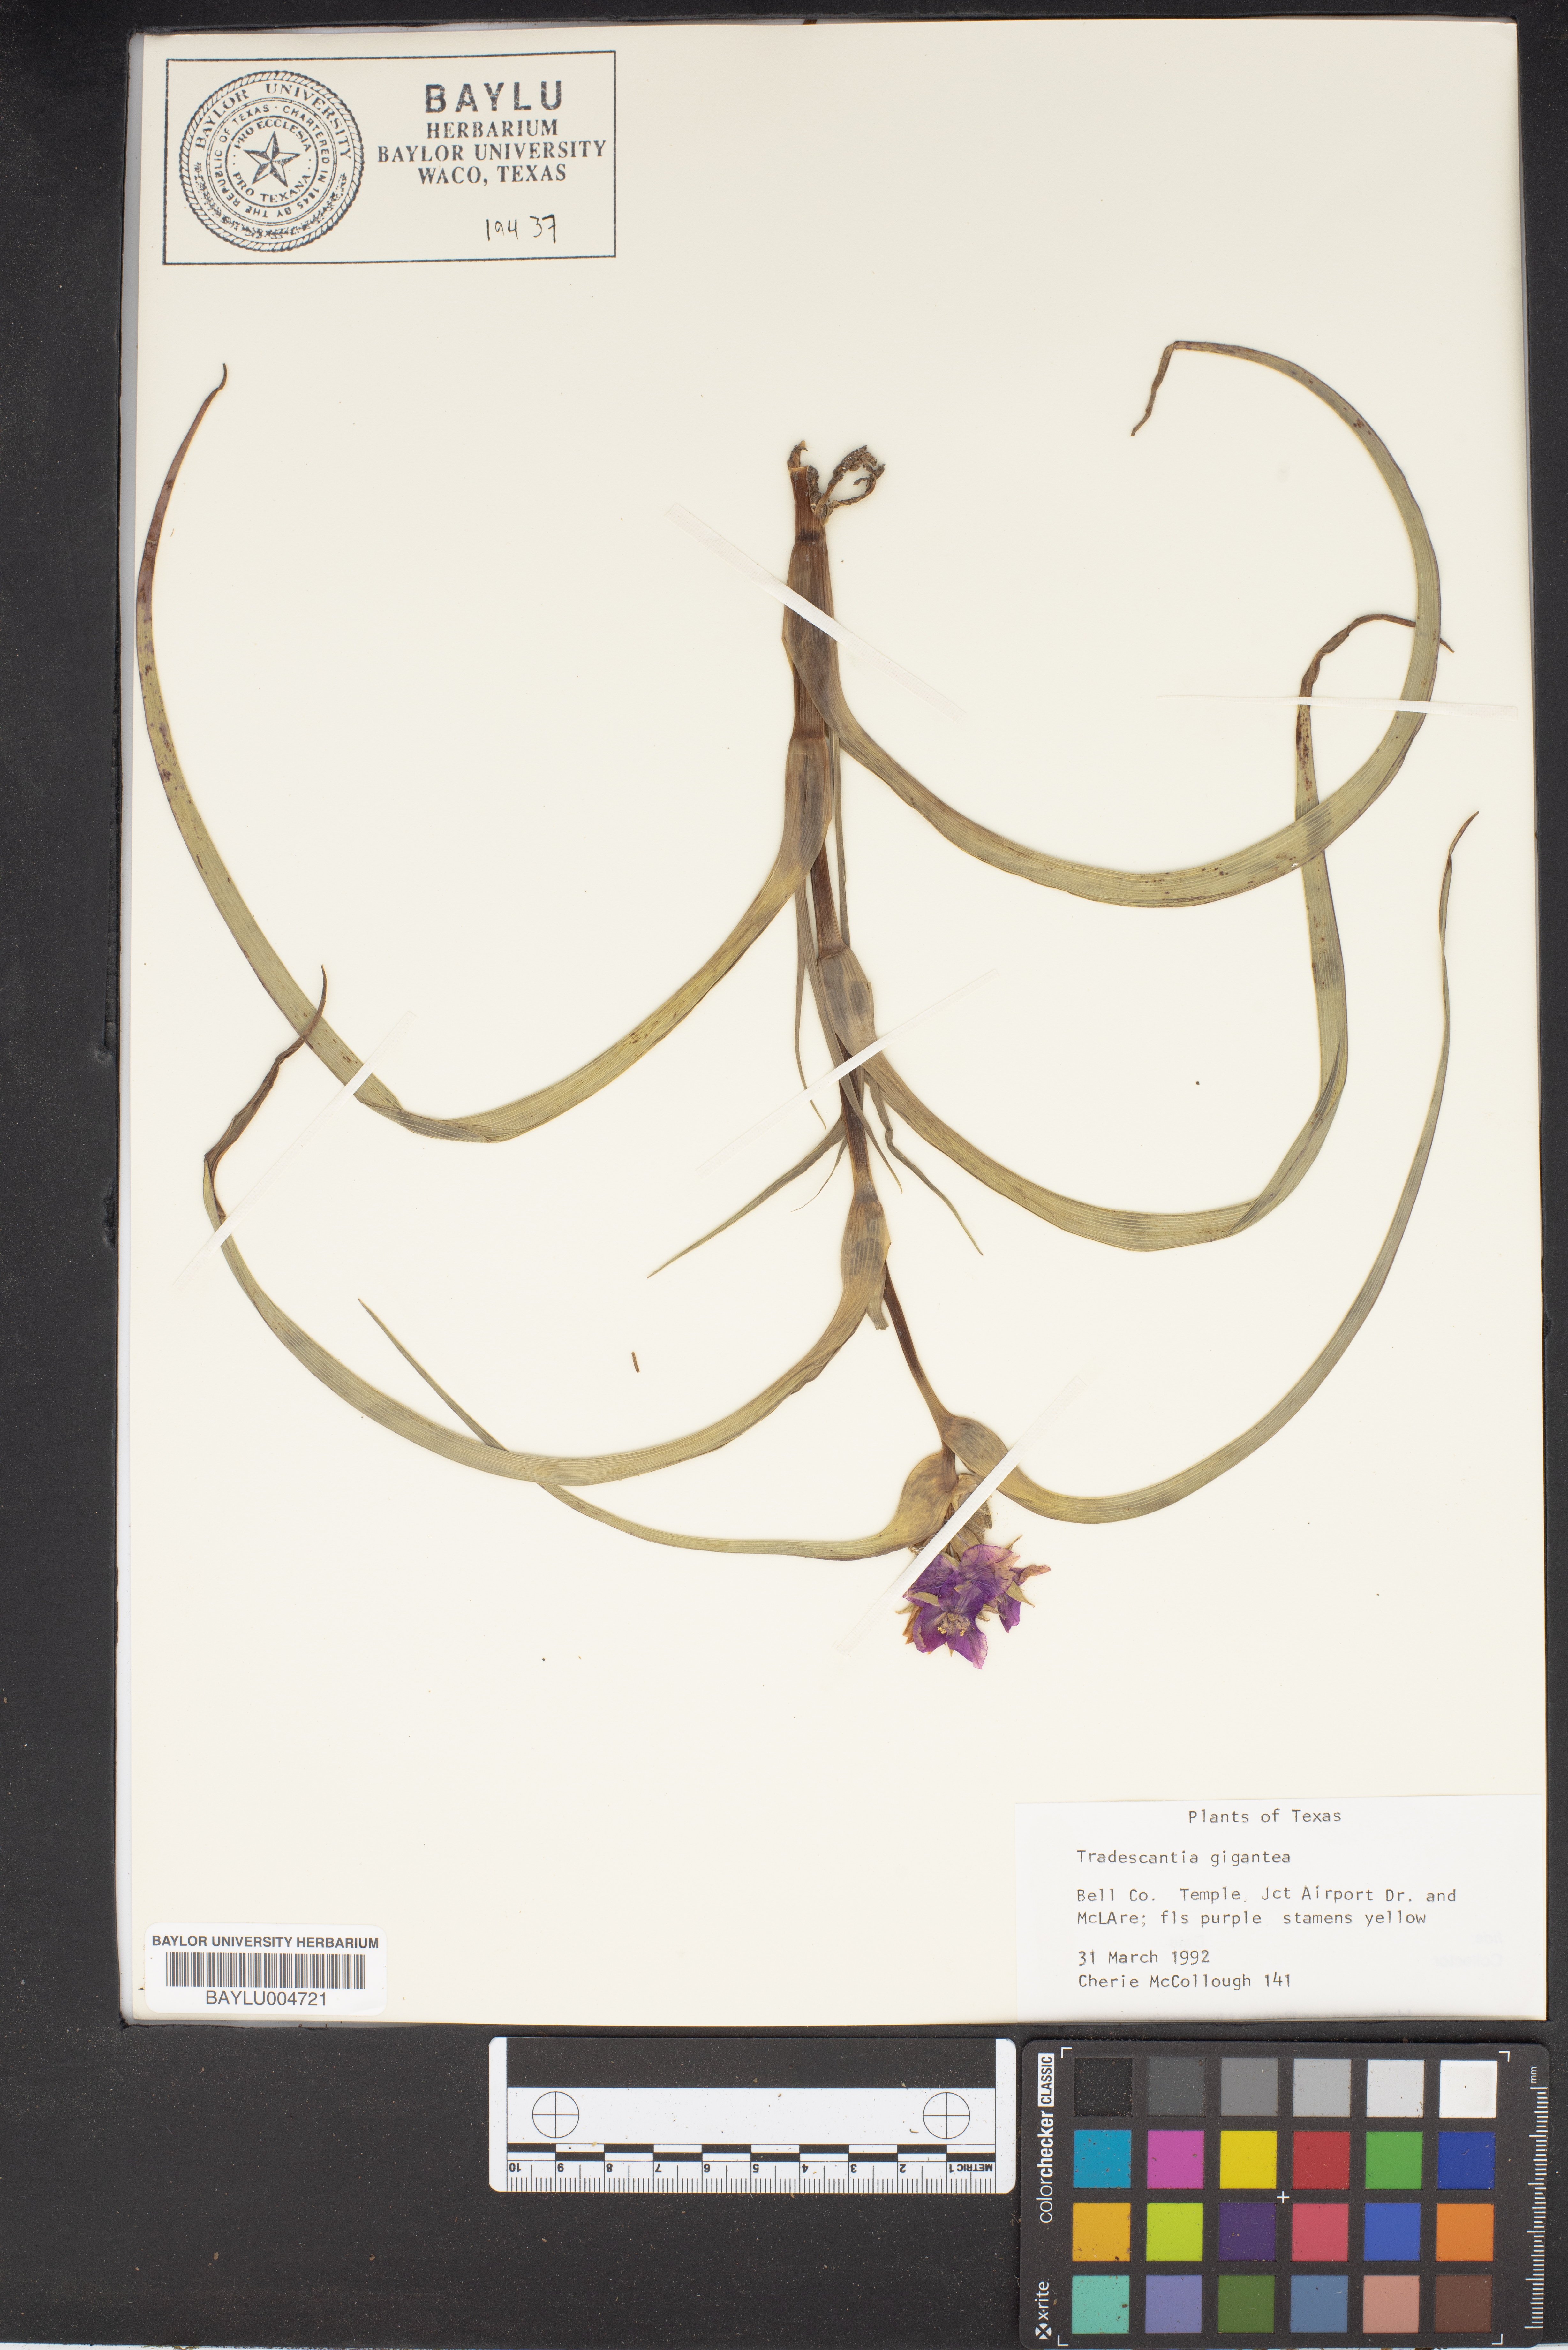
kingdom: Plantae
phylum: Tracheophyta
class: Liliopsida
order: Commelinales
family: Commelinaceae
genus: Tradescantia
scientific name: Tradescantia gigantea
